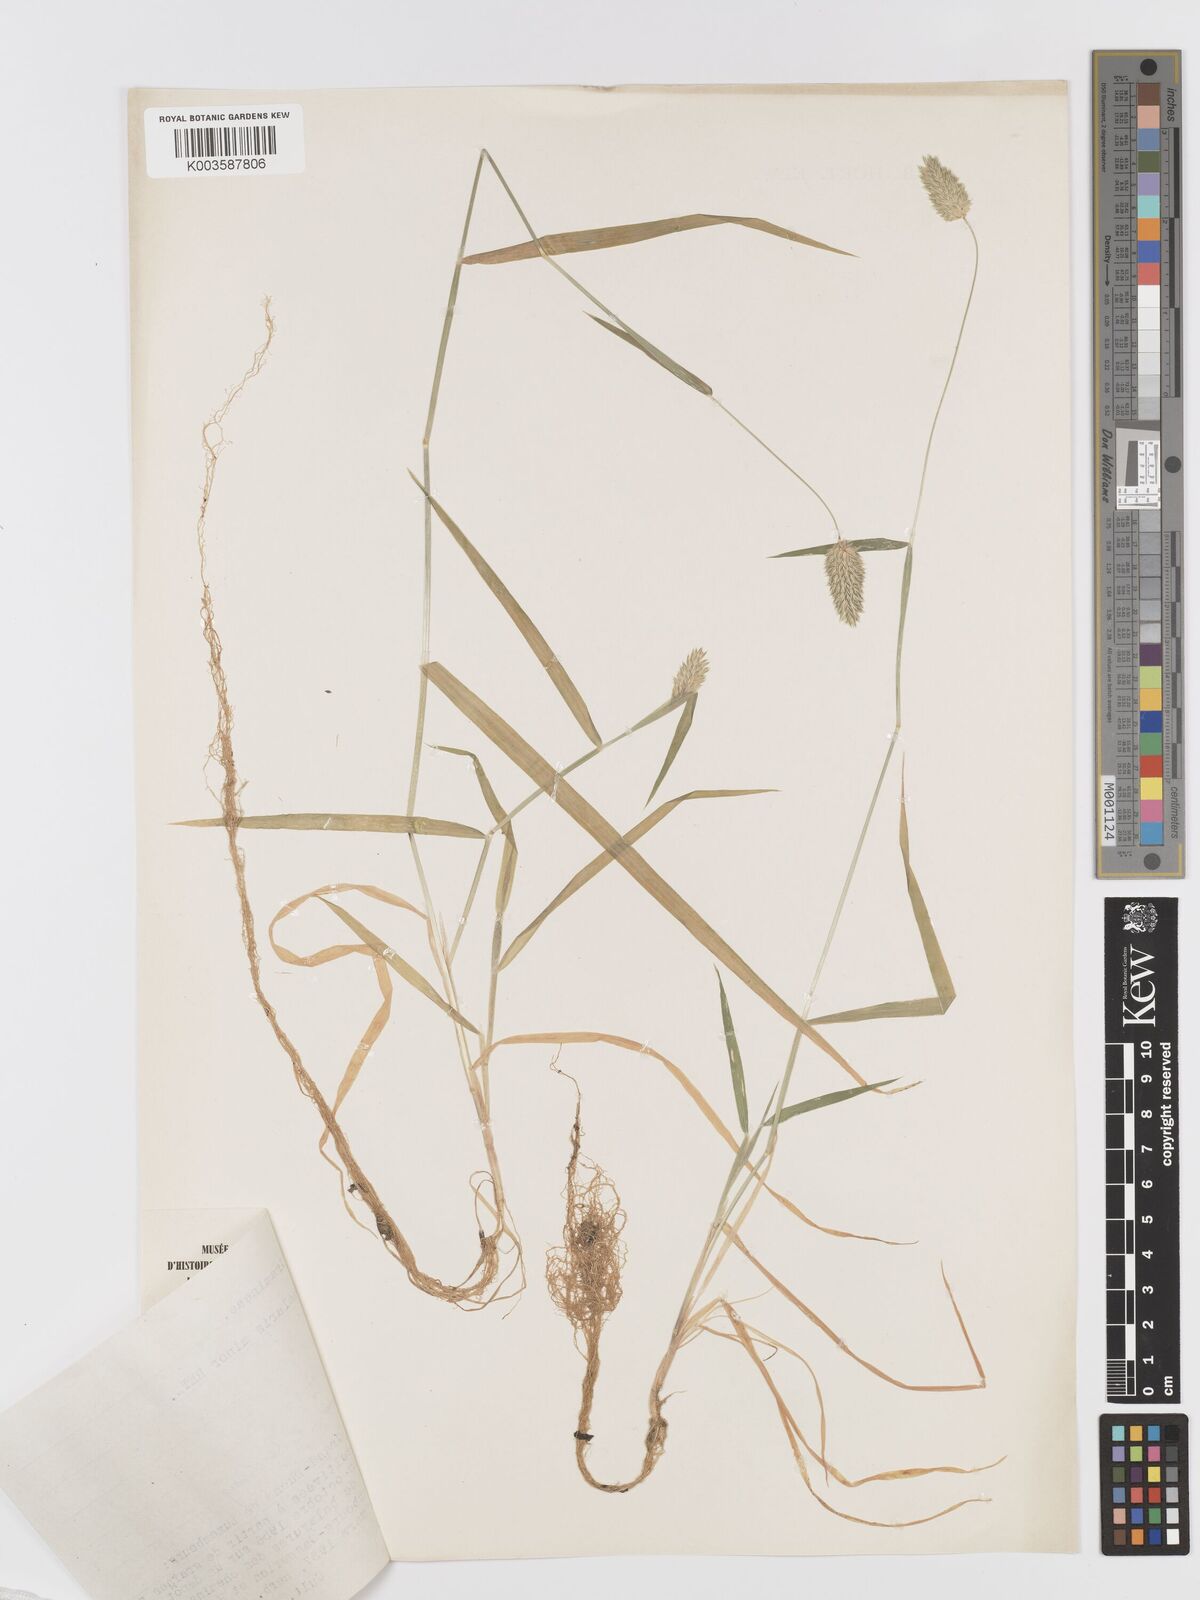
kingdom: Plantae
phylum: Tracheophyta
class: Liliopsida
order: Poales
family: Poaceae
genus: Phalaris
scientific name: Phalaris minor
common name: Littleseed canarygrass
